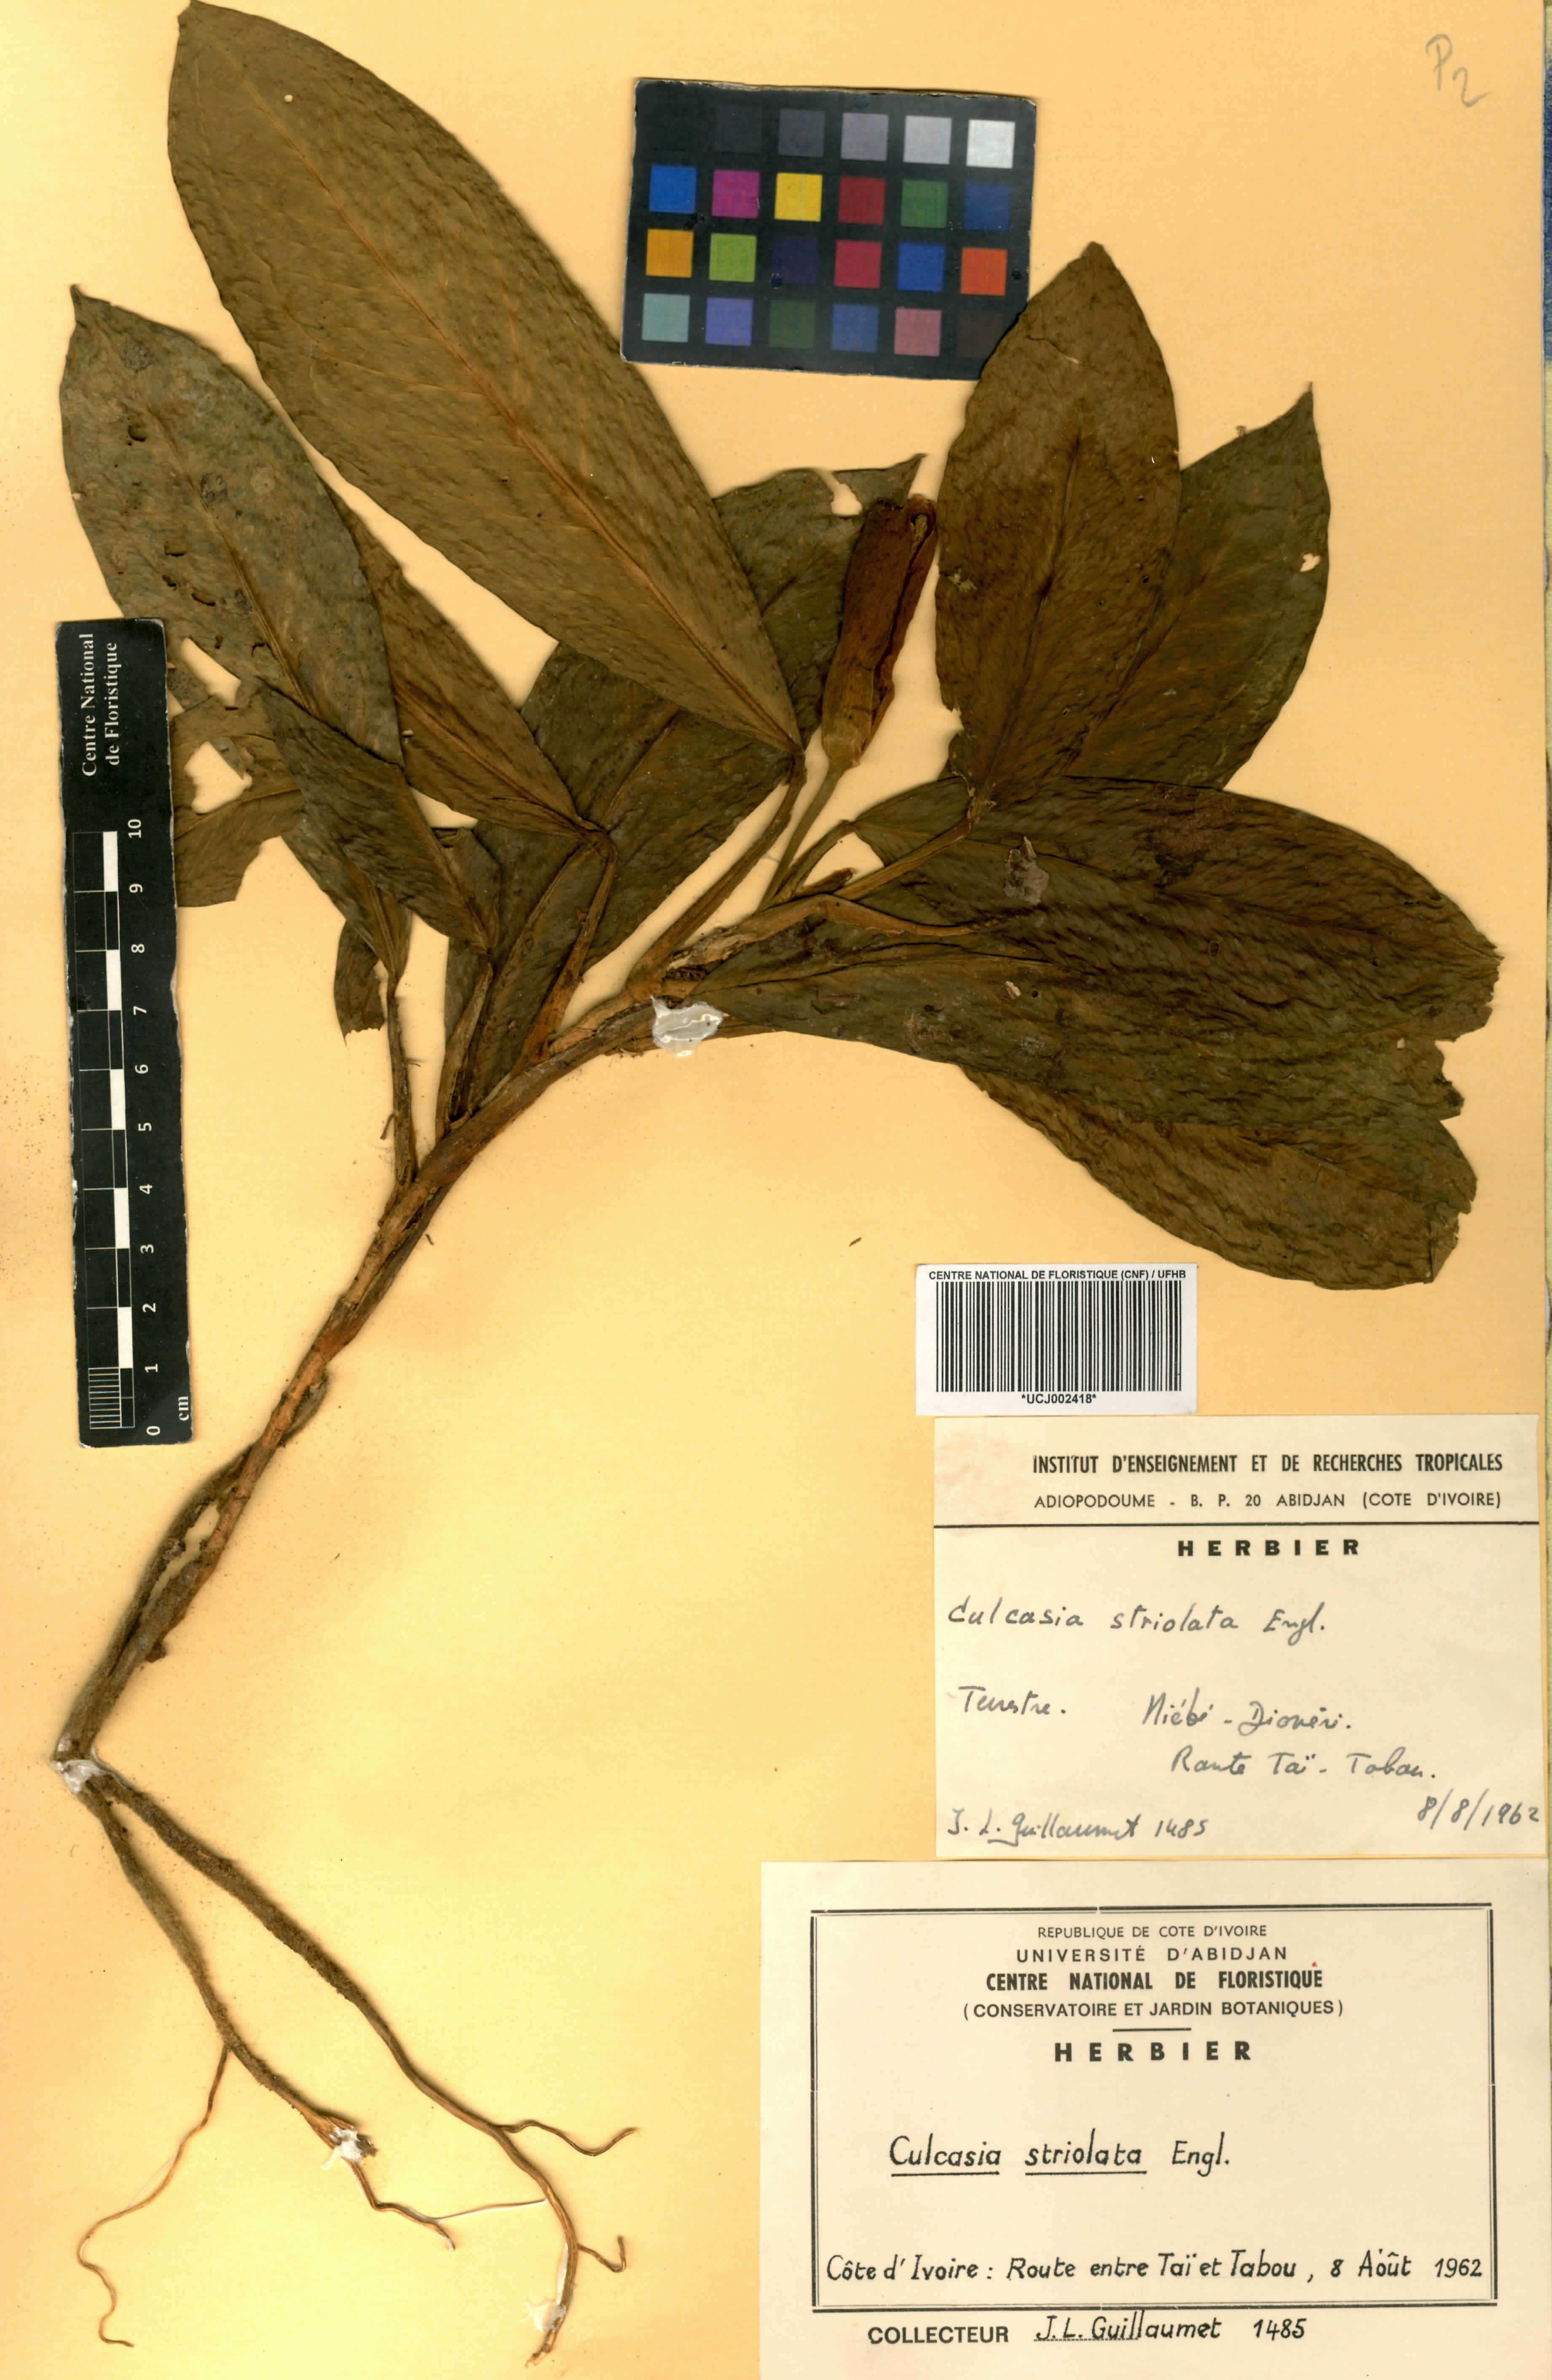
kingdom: Plantae
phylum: Tracheophyta
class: Liliopsida
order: Alismatales
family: Araceae
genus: Culcasia
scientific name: Culcasia striolata
